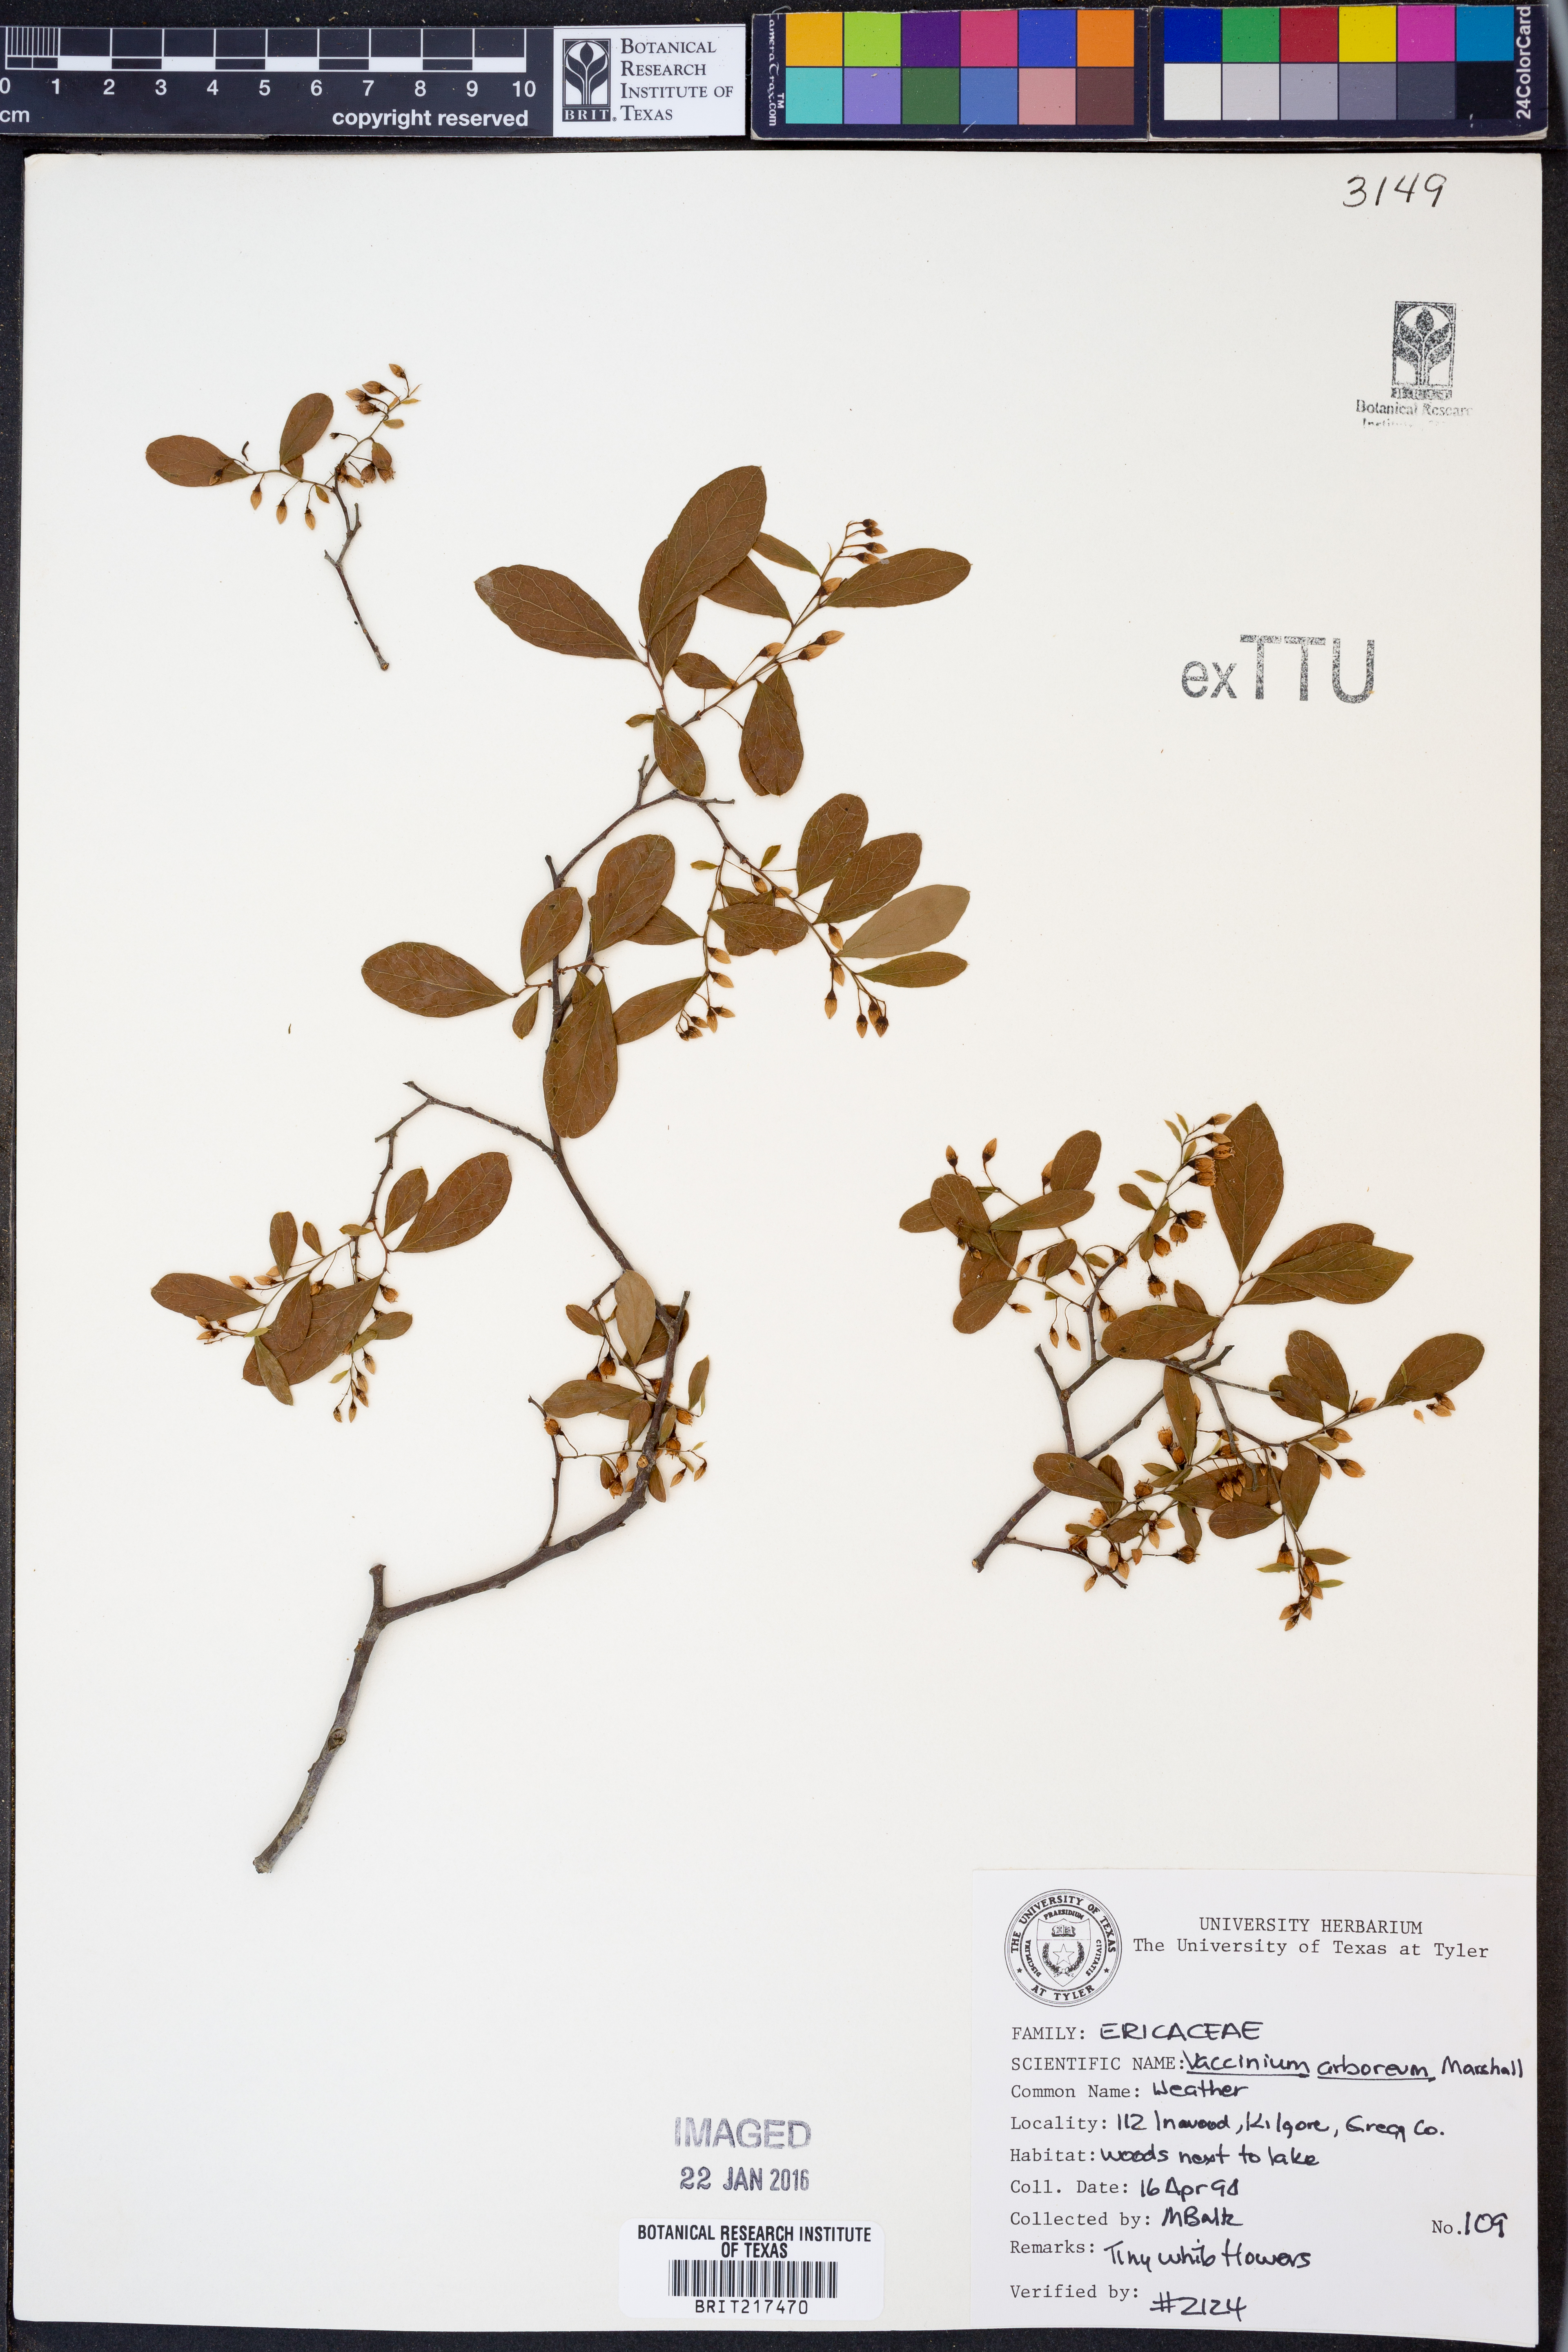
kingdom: Plantae
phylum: Tracheophyta
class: Magnoliopsida
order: Ericales
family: Ericaceae
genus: Vaccinium
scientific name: Vaccinium arboreum
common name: Farkleberry
